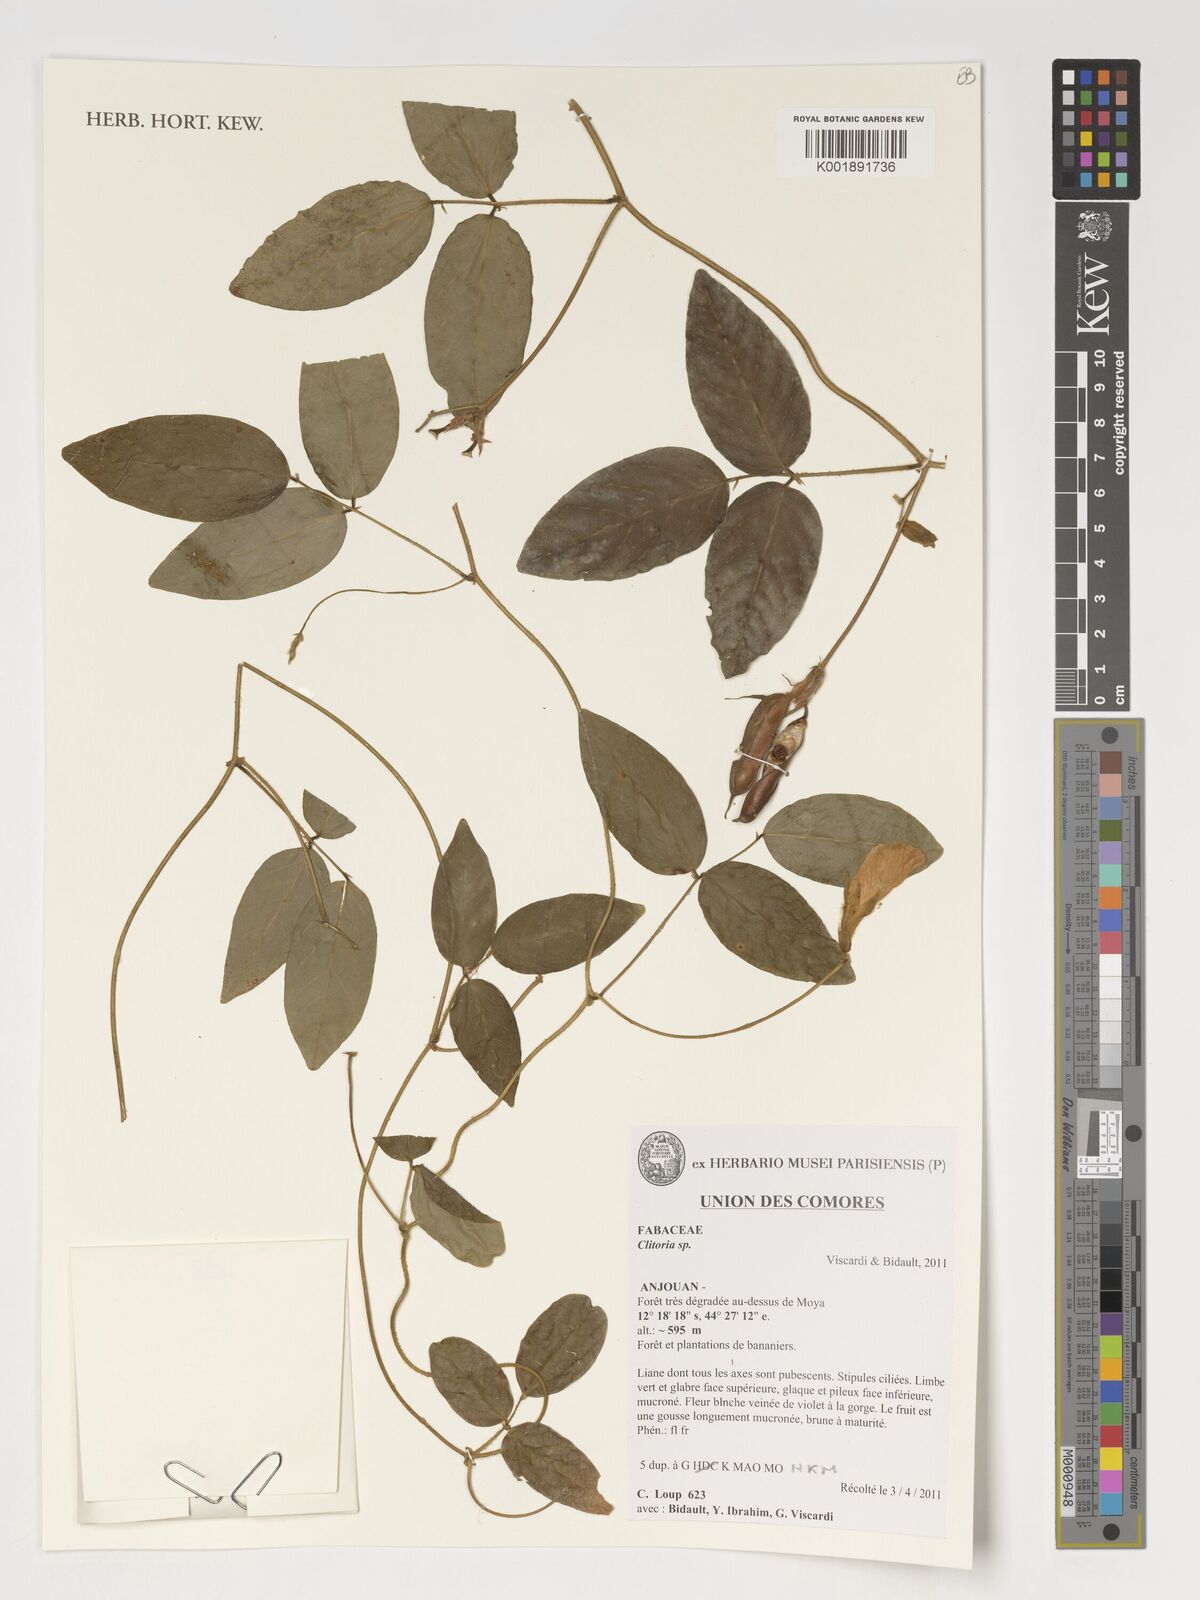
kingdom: Plantae
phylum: Tracheophyta
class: Magnoliopsida
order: Fabales
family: Fabaceae
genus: Clitoria
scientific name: Clitoria
